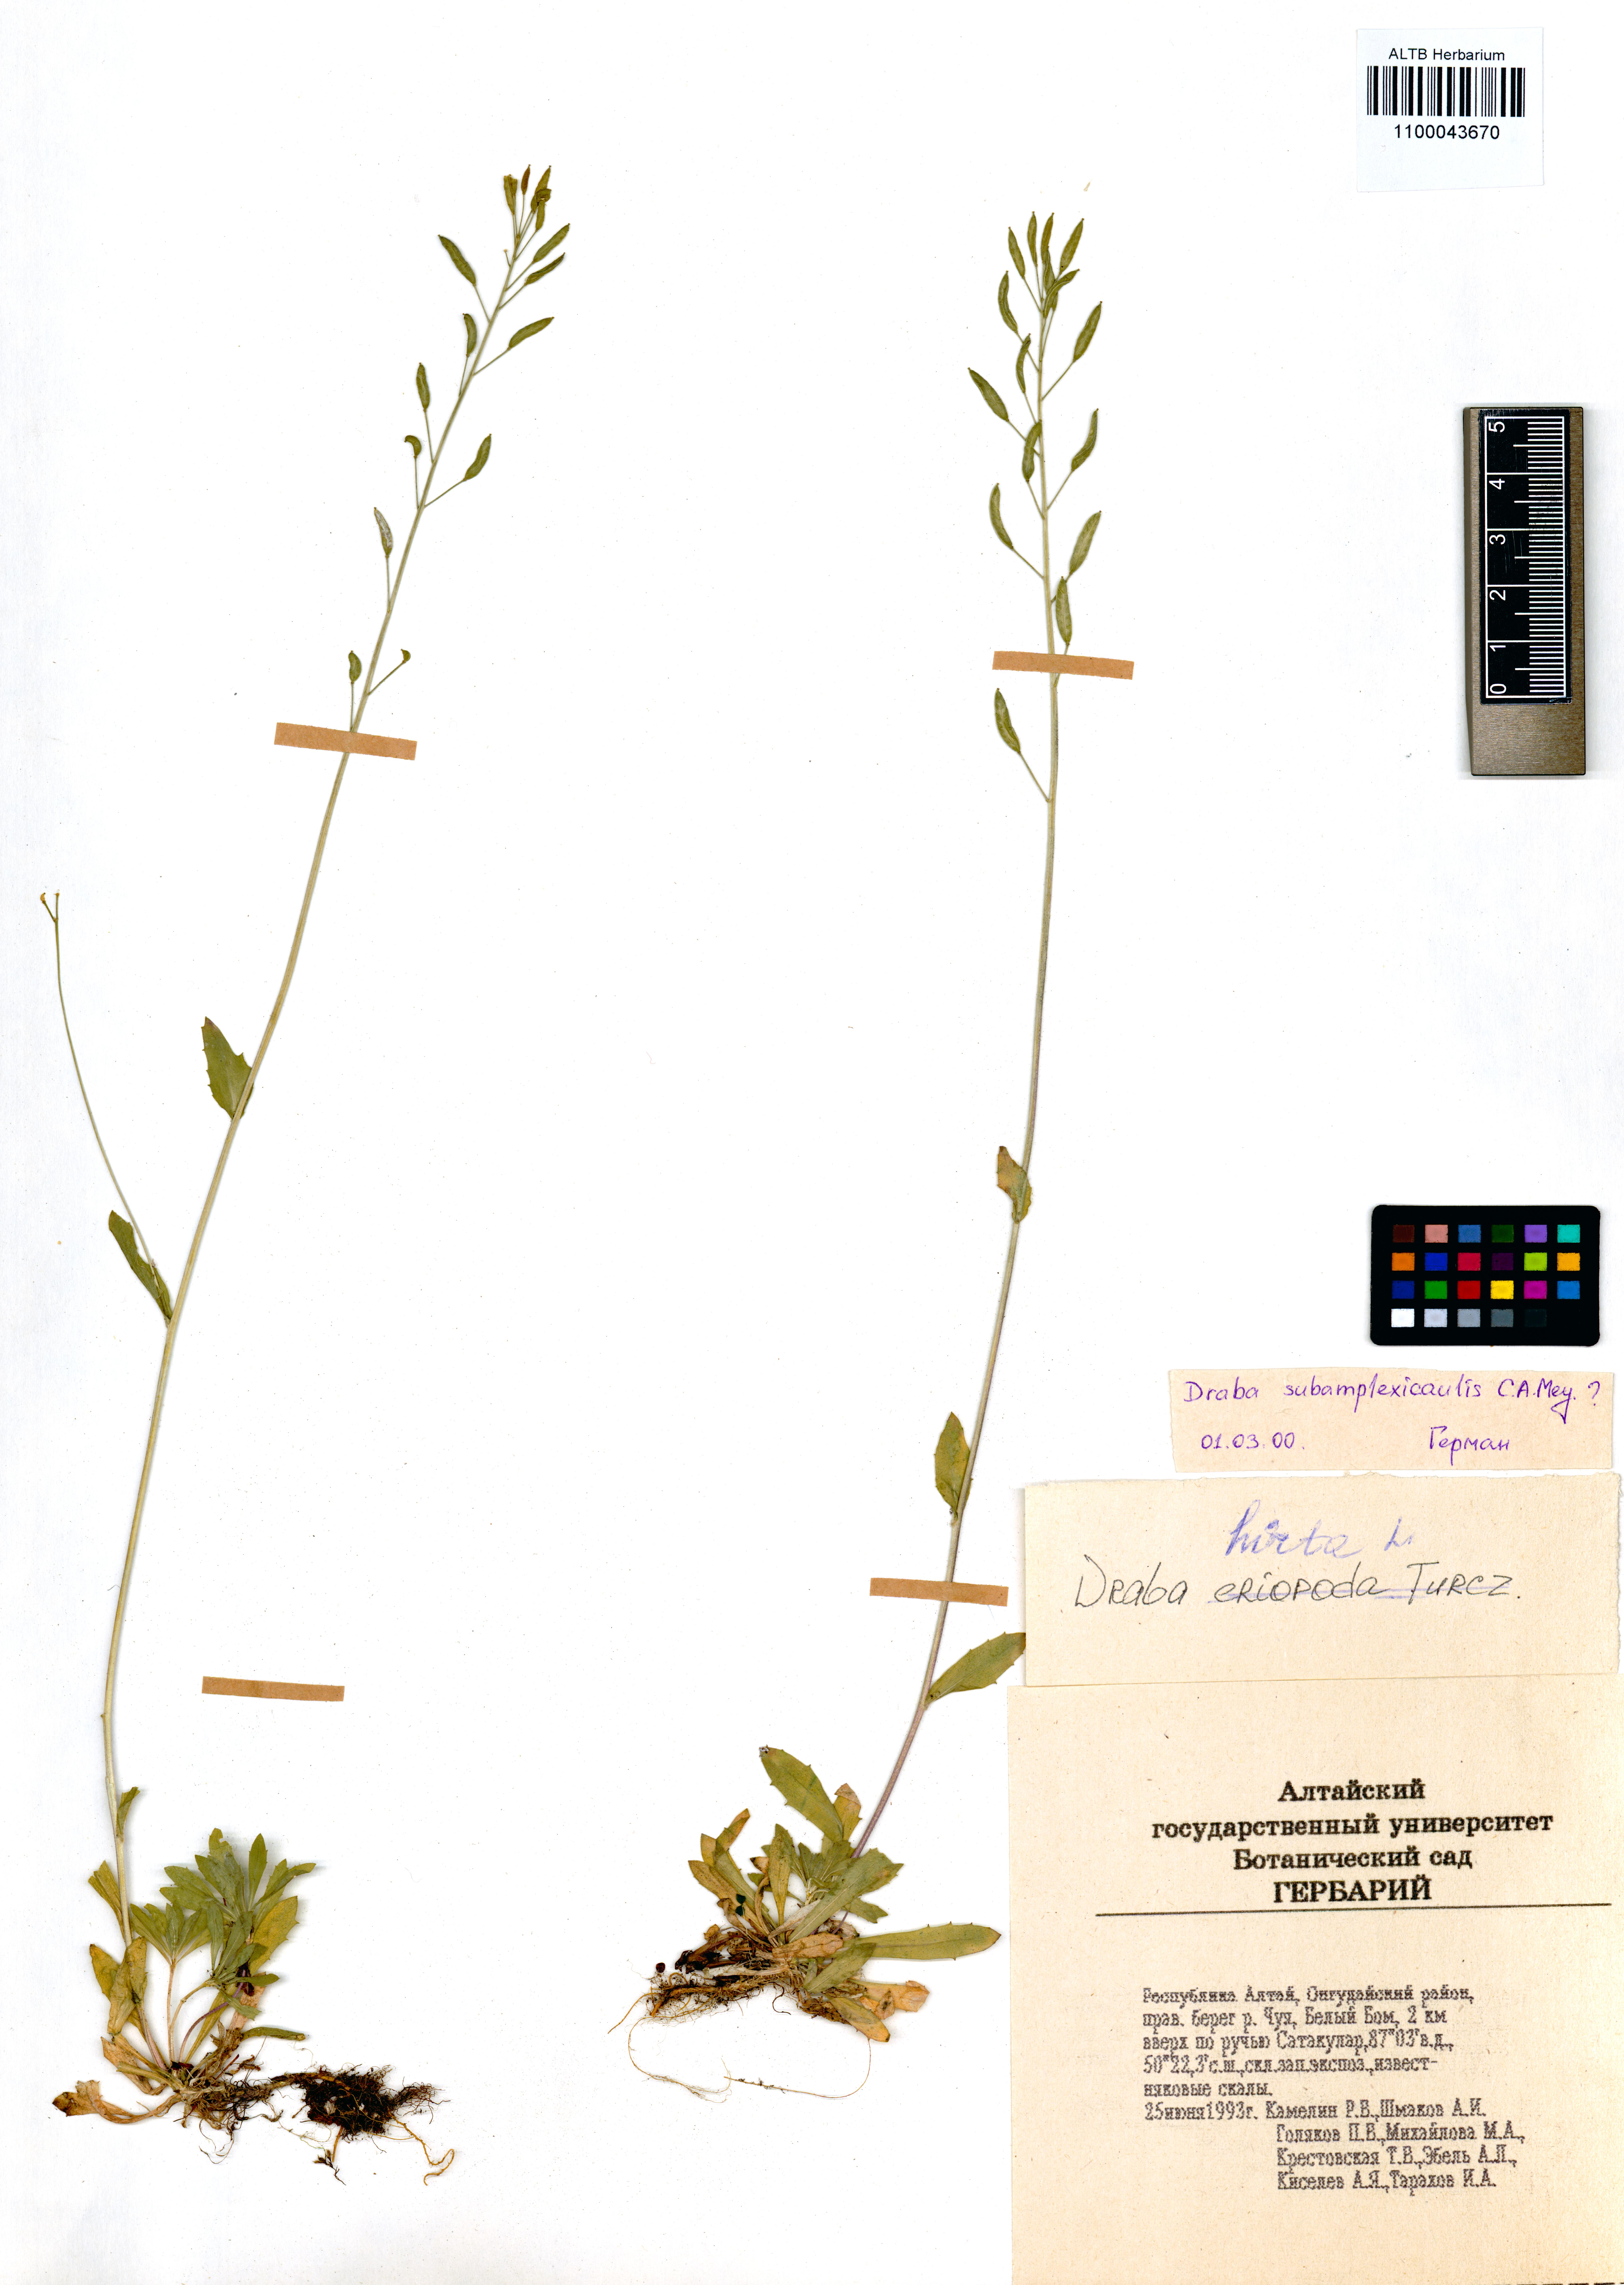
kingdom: Plantae
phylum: Tracheophyta
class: Magnoliopsida
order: Brassicales
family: Brassicaceae
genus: Draba
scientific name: Draba subamplexicaulis
